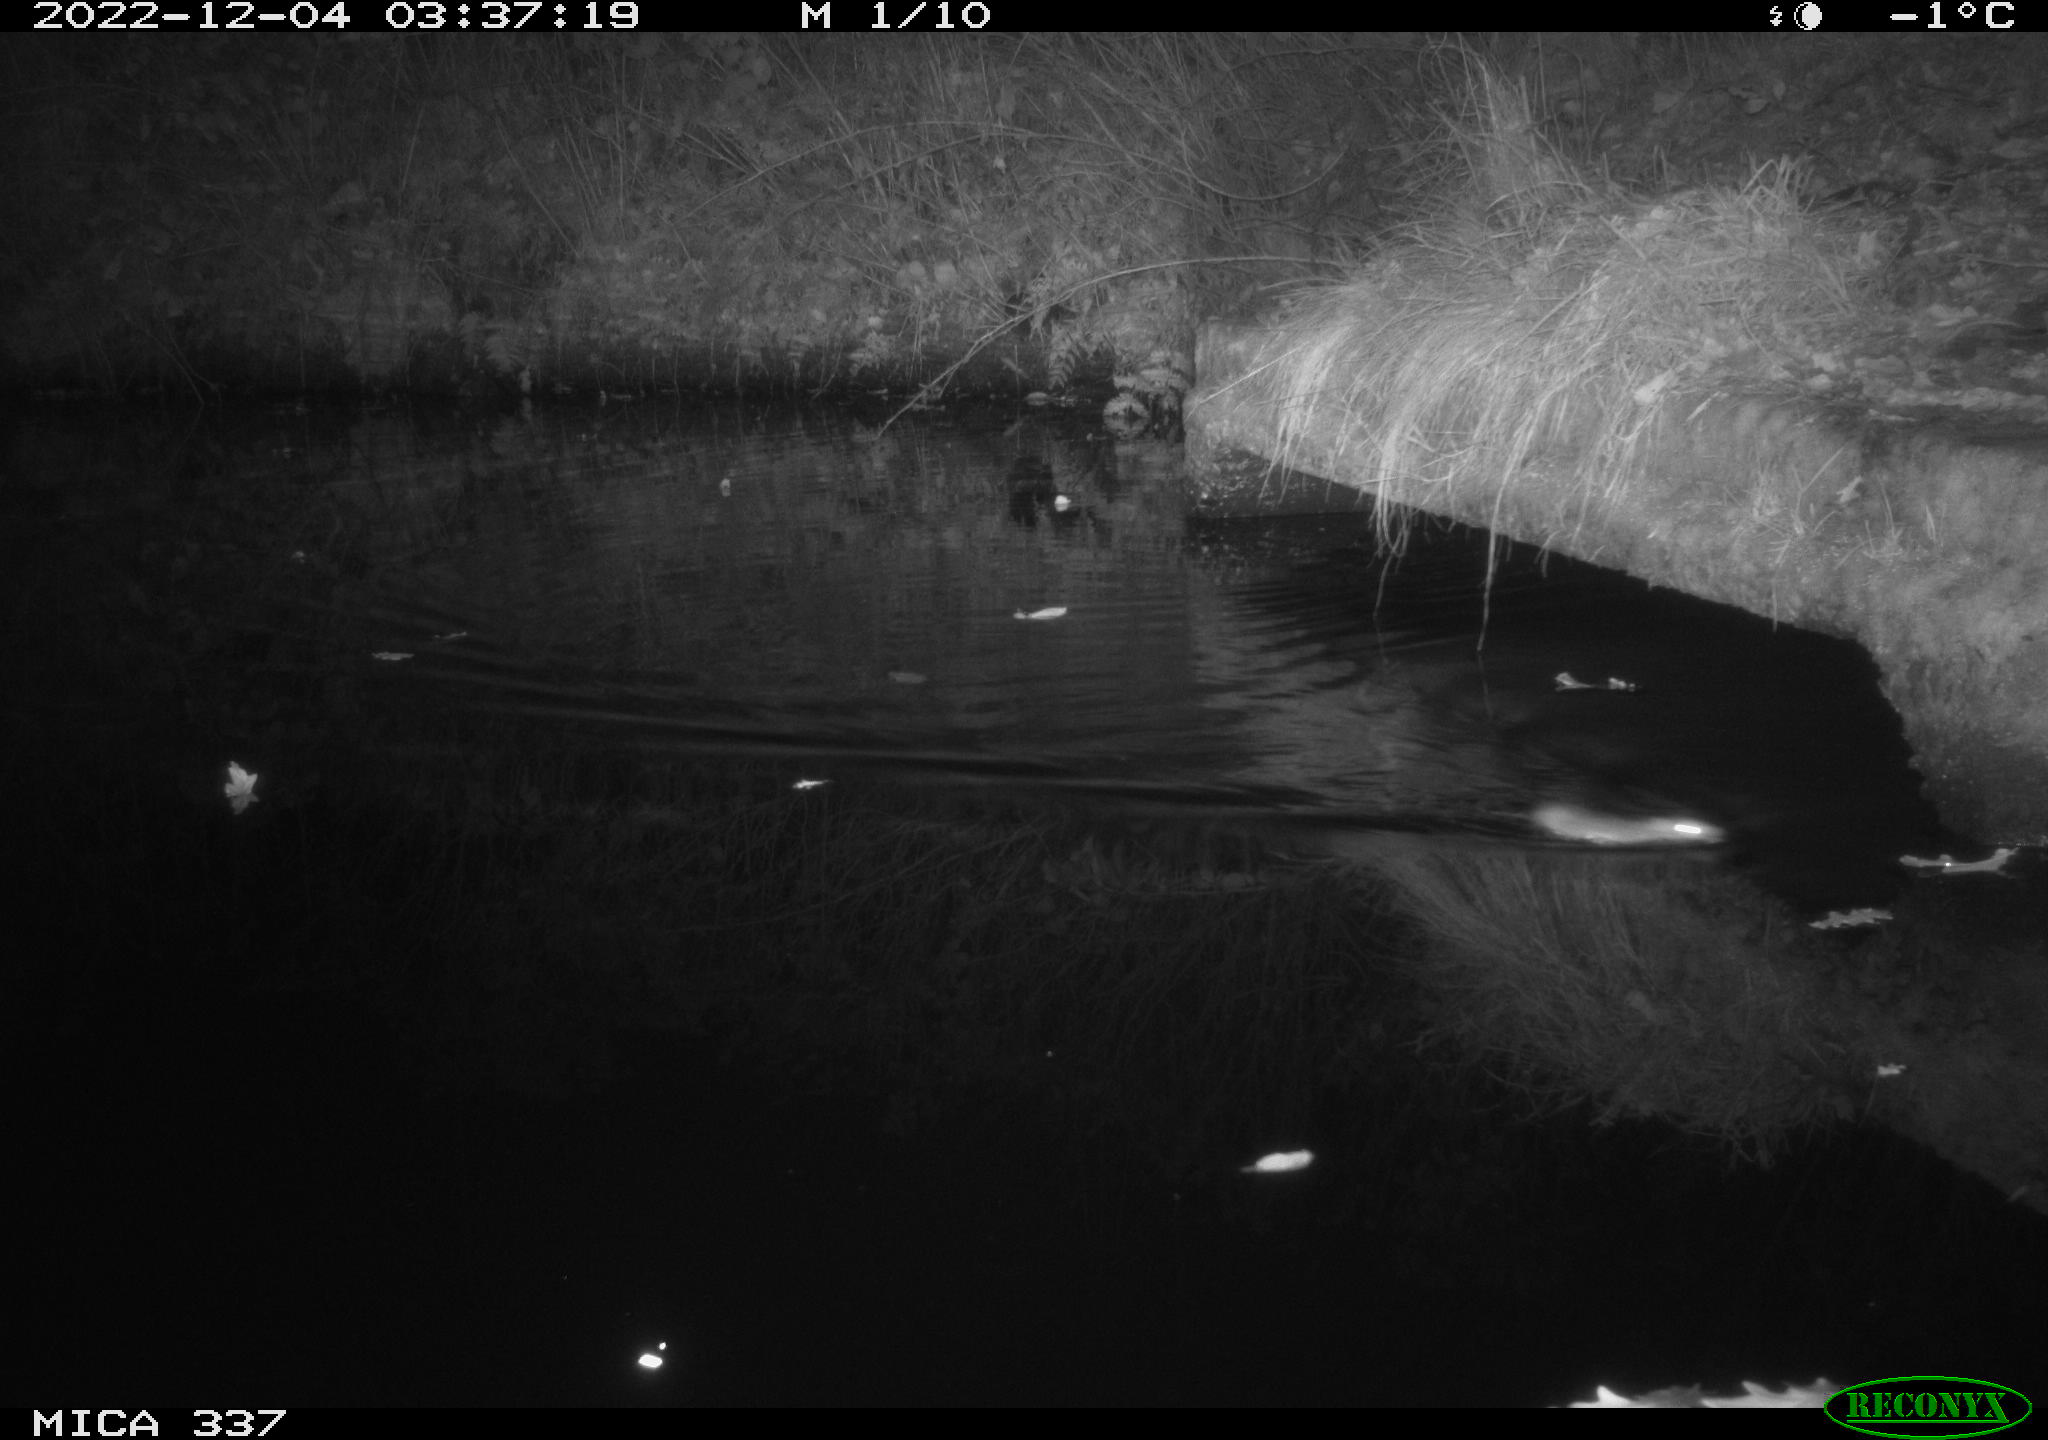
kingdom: Animalia
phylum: Chordata
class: Mammalia
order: Rodentia
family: Muridae
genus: Rattus
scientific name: Rattus norvegicus
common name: Brown rat
